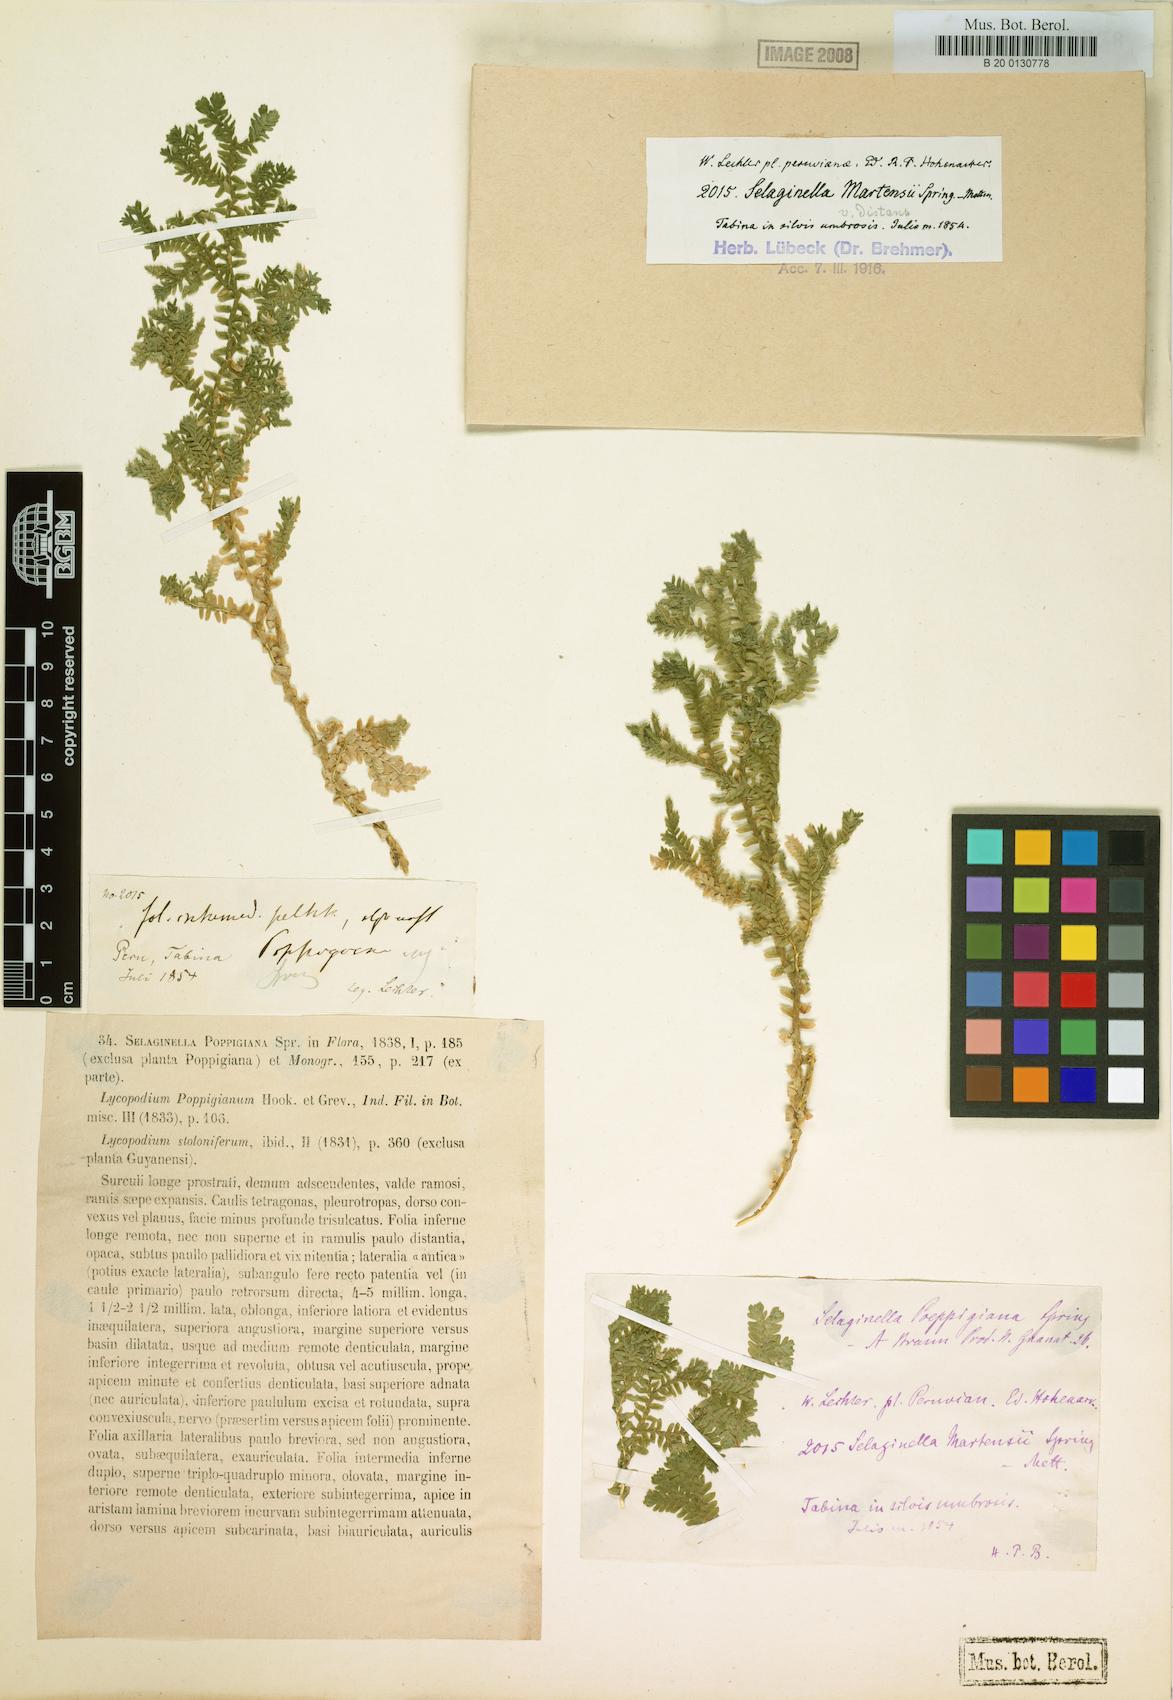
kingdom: Plantae
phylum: Tracheophyta
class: Lycopodiopsida
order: Selaginellales
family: Selaginellaceae
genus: Selaginella
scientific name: Selaginella trisulcata
